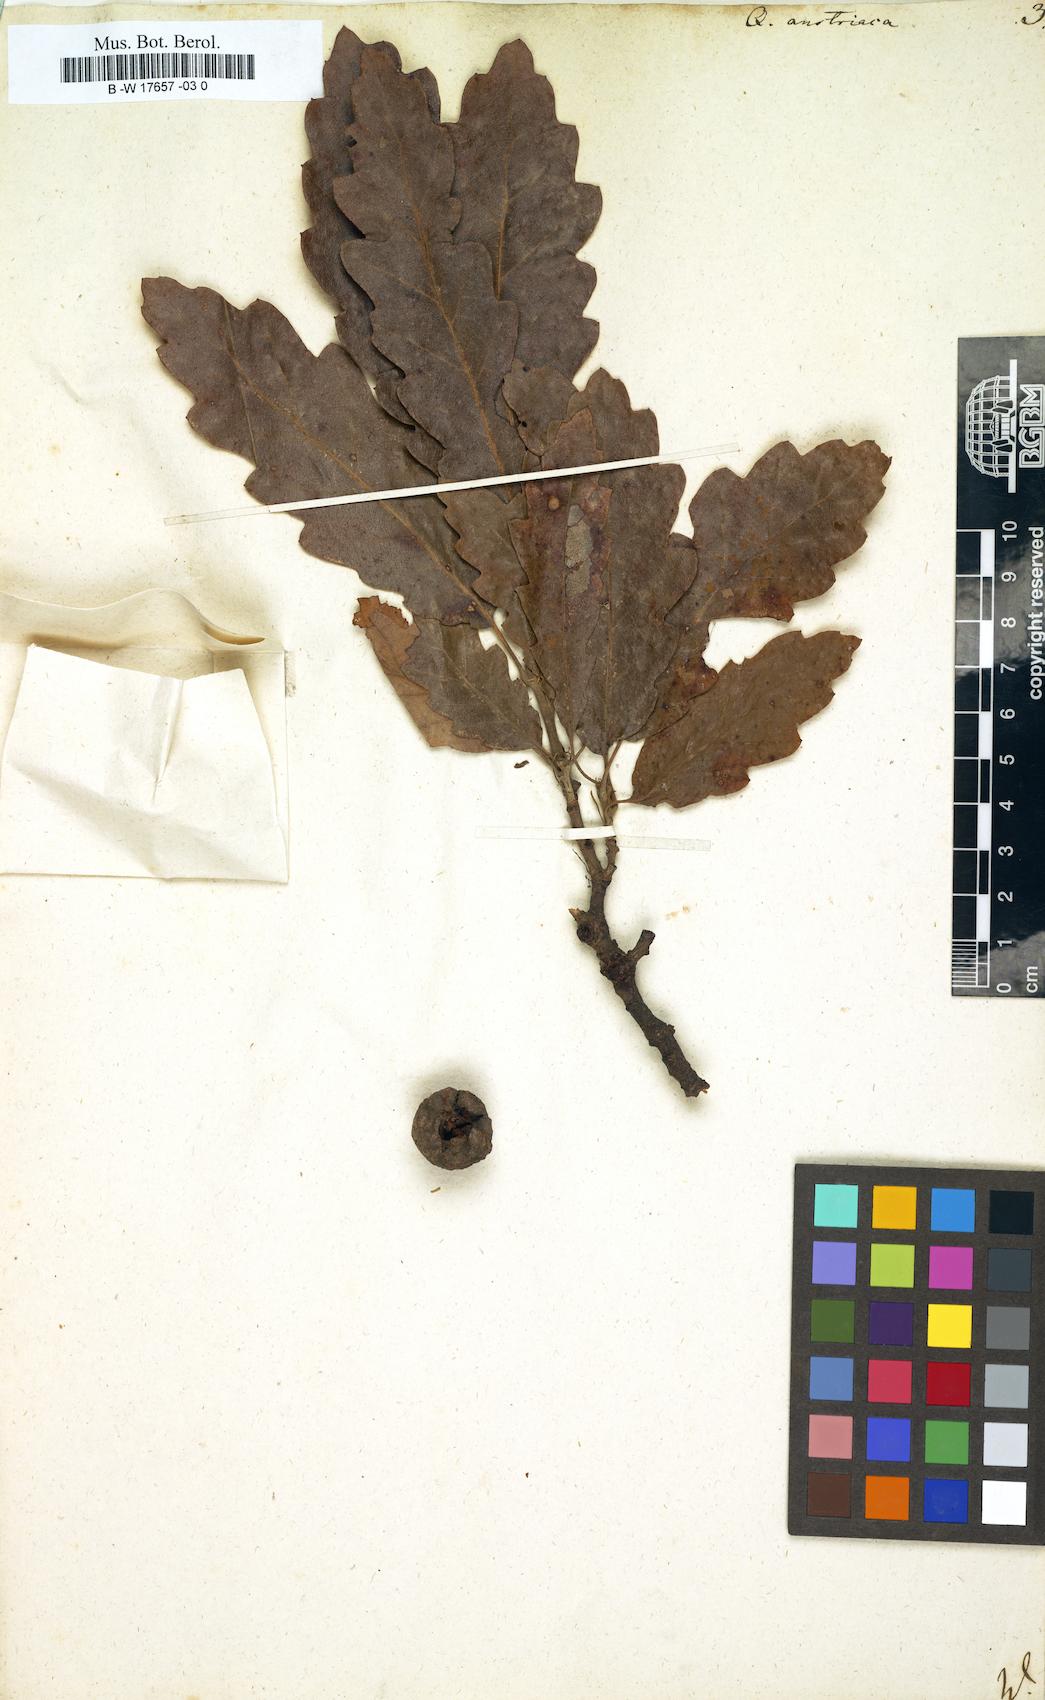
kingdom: Plantae
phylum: Tracheophyta
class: Magnoliopsida
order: Fagales
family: Fagaceae
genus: Quercus
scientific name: Quercus cerris
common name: Turkey oak
